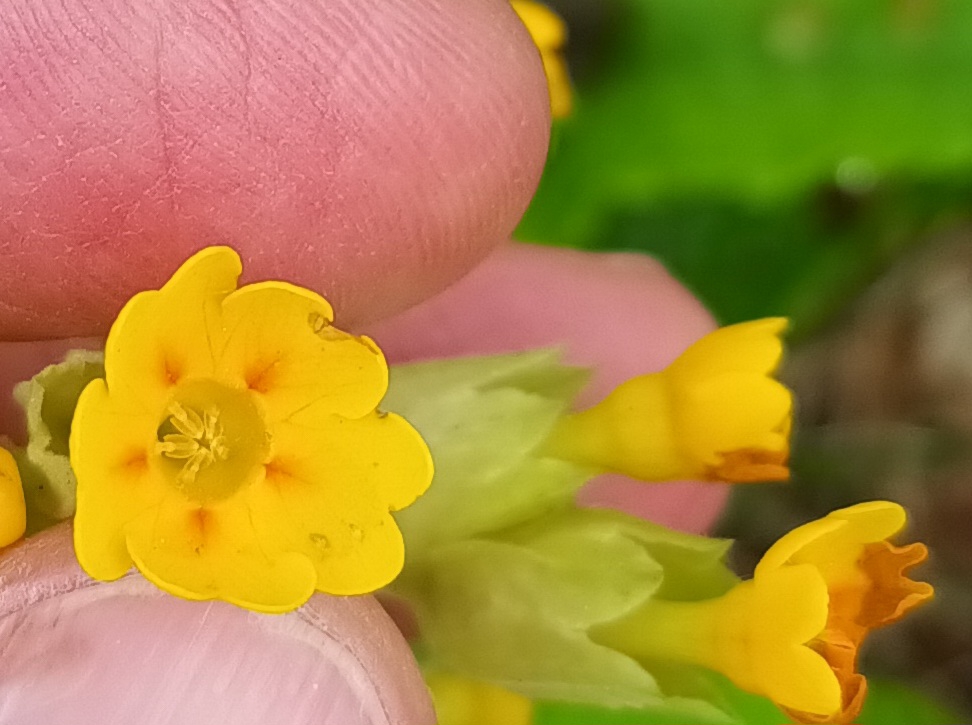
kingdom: Plantae
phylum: Tracheophyta
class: Magnoliopsida
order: Ericales
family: Primulaceae
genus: Primula
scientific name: Primula veris
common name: Hulkravet kodriver
